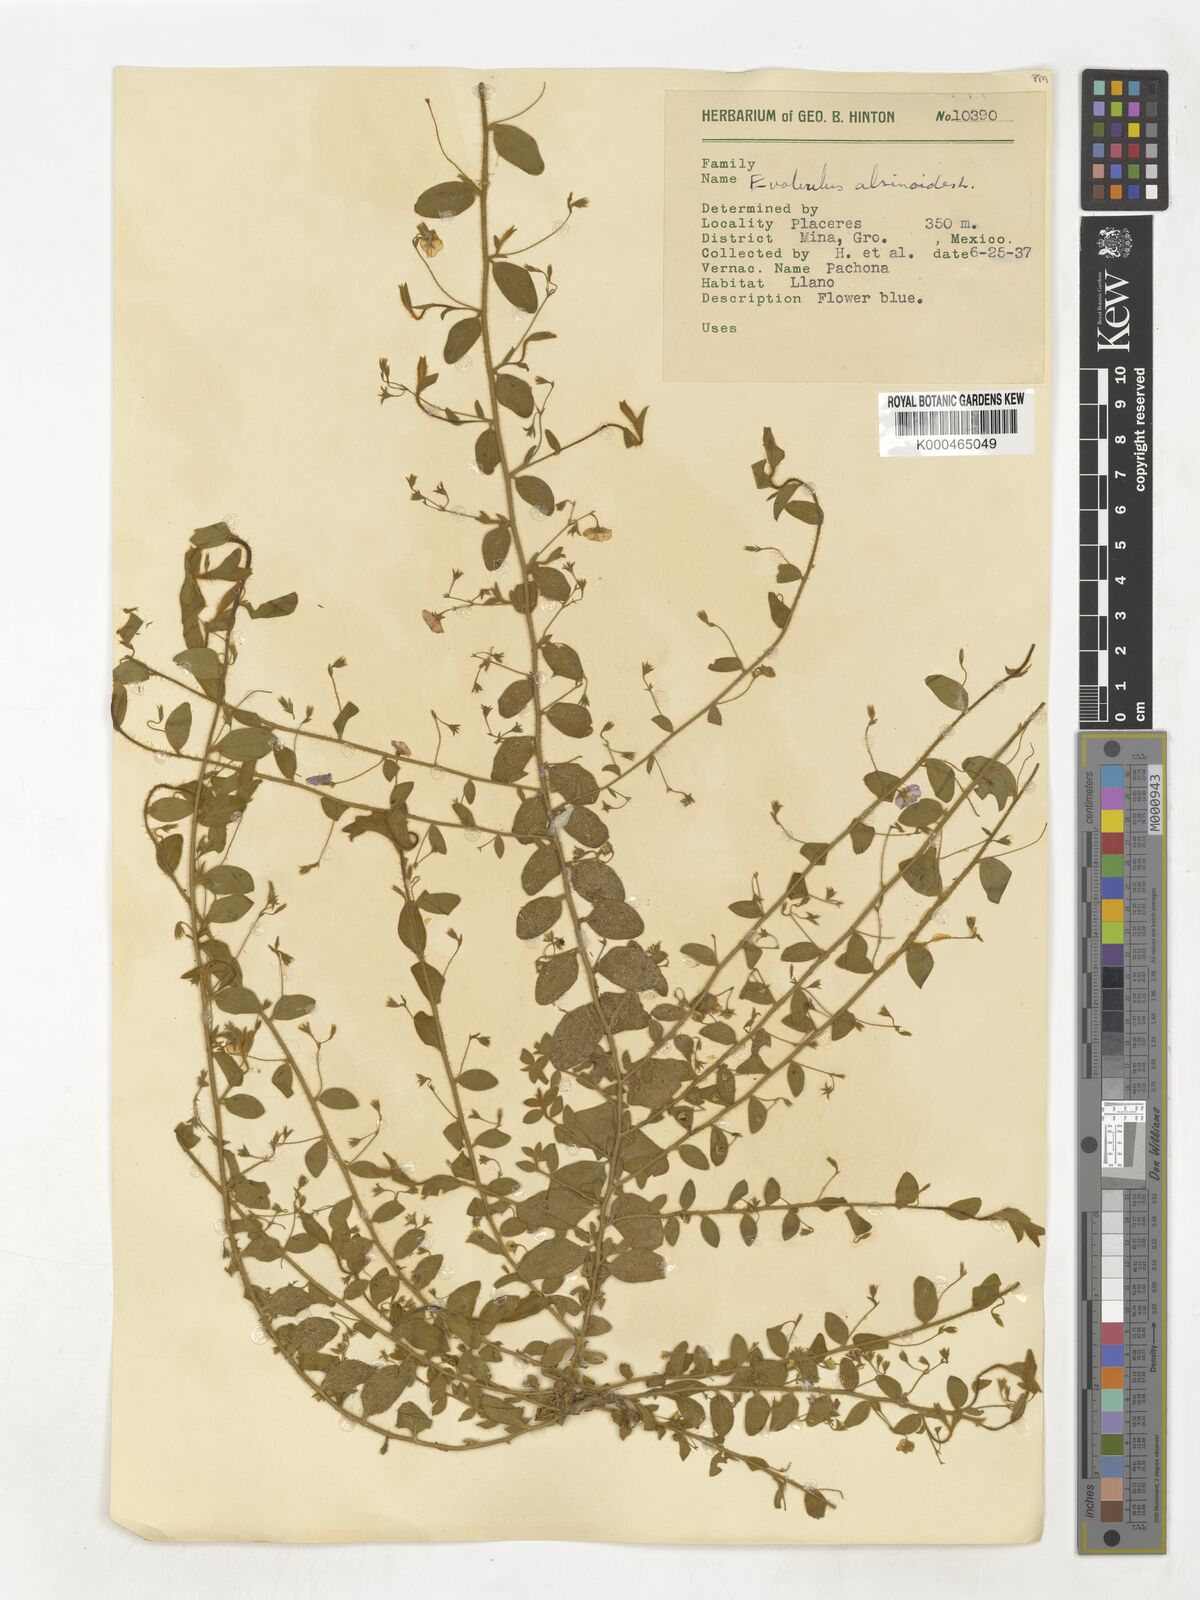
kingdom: Plantae
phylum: Tracheophyta
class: Magnoliopsida
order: Solanales
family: Convolvulaceae
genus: Evolvulus
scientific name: Evolvulus alsinoides
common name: Slender dwarf morning-glory
